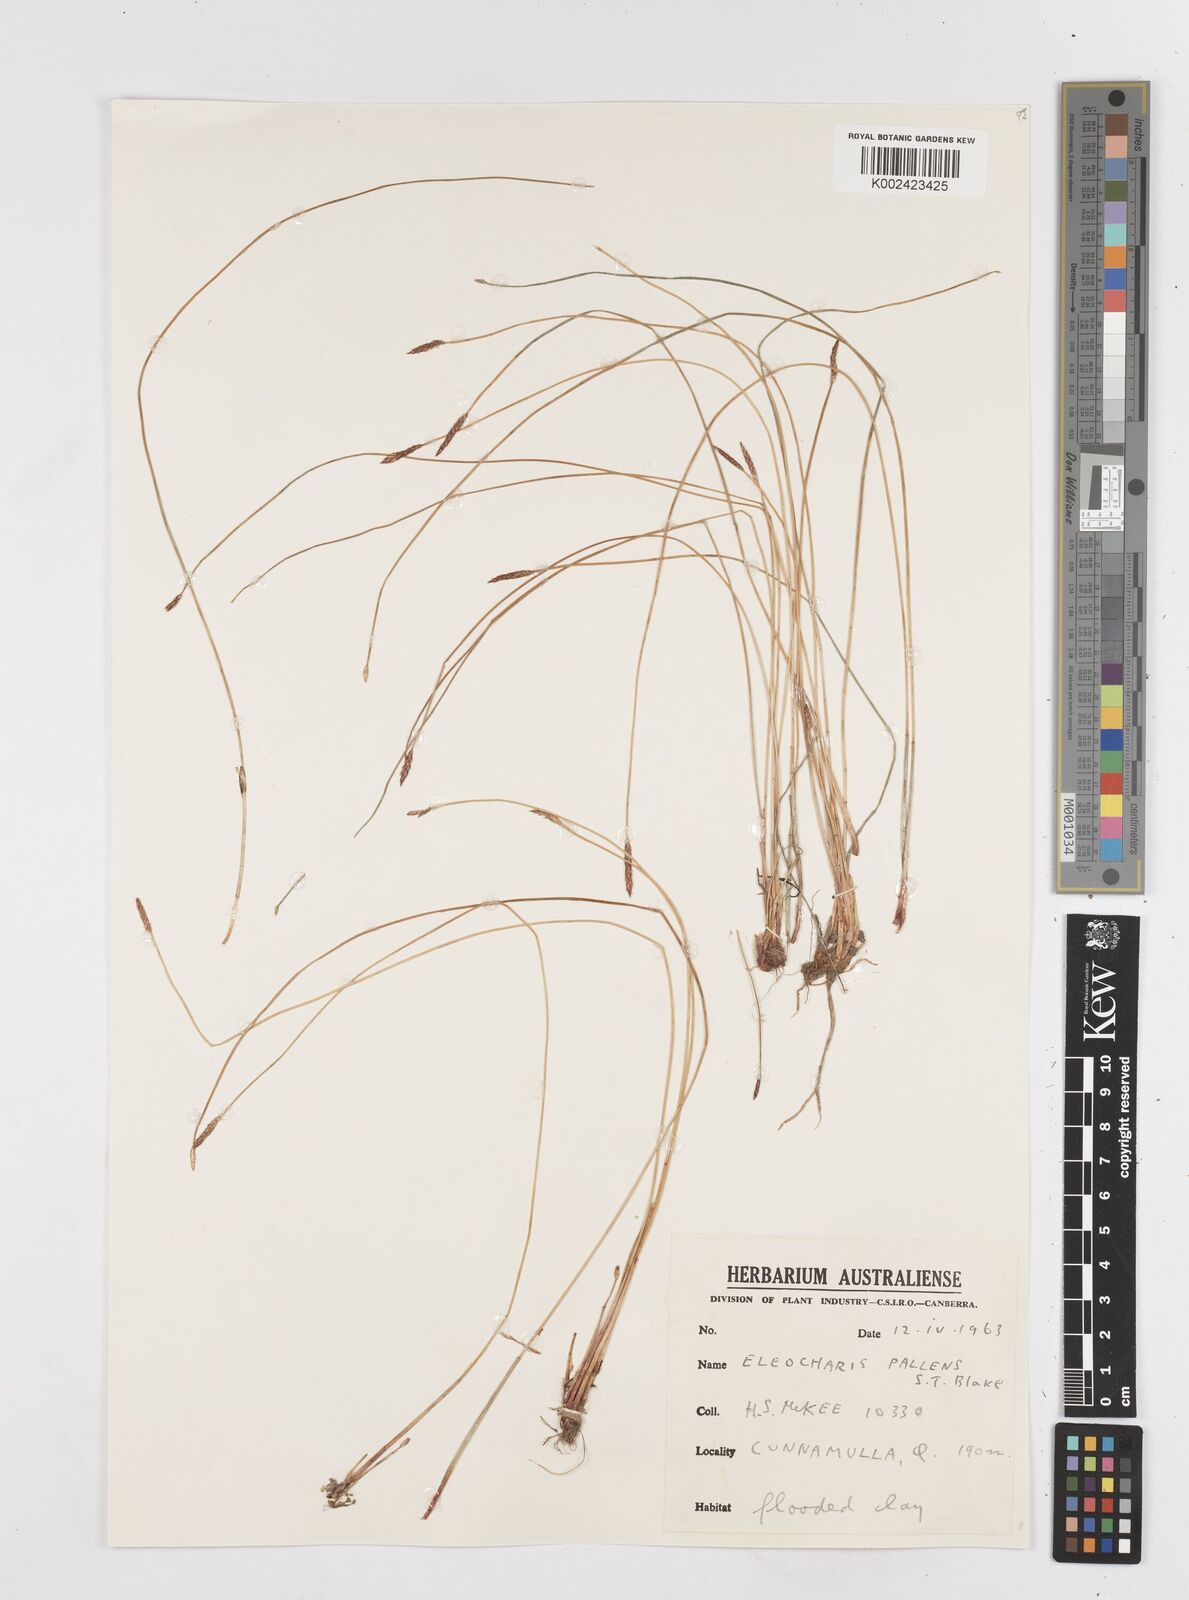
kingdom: Plantae
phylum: Tracheophyta
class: Liliopsida
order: Poales
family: Cyperaceae
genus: Eleocharis
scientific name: Eleocharis acuta
